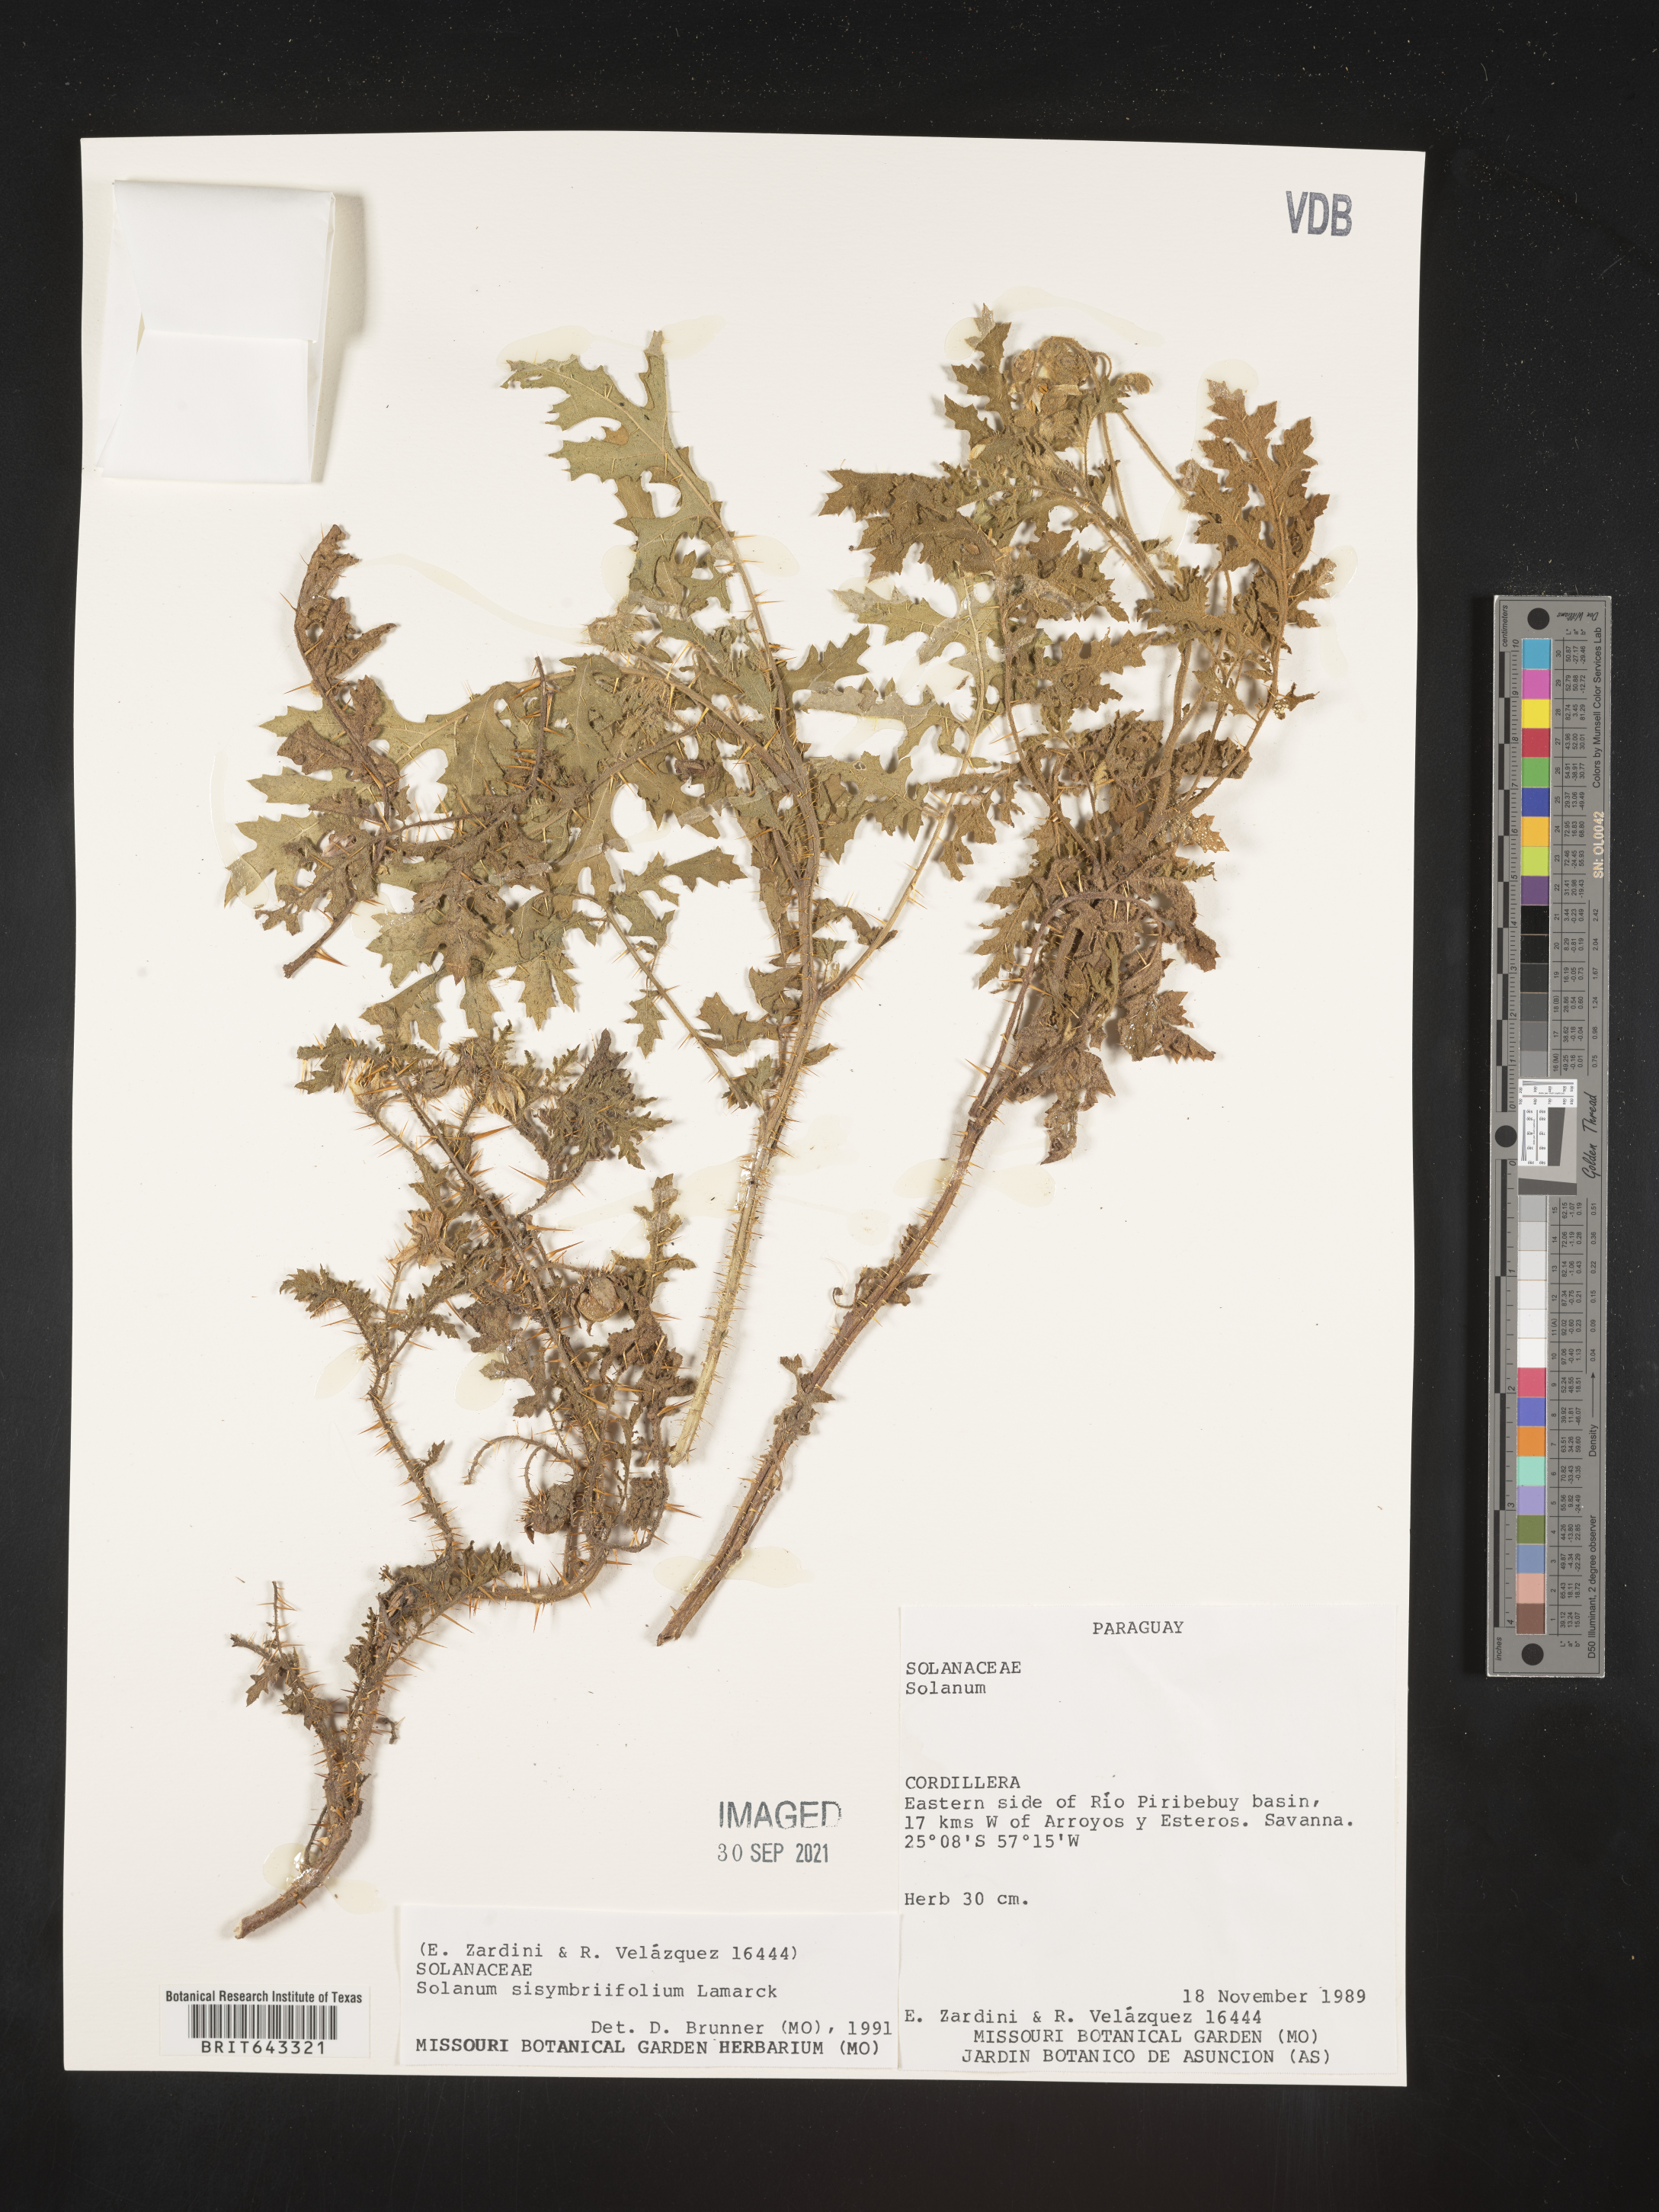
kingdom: Plantae
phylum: Tracheophyta
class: Magnoliopsida
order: Solanales
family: Solanaceae
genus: Solanum
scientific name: Solanum
